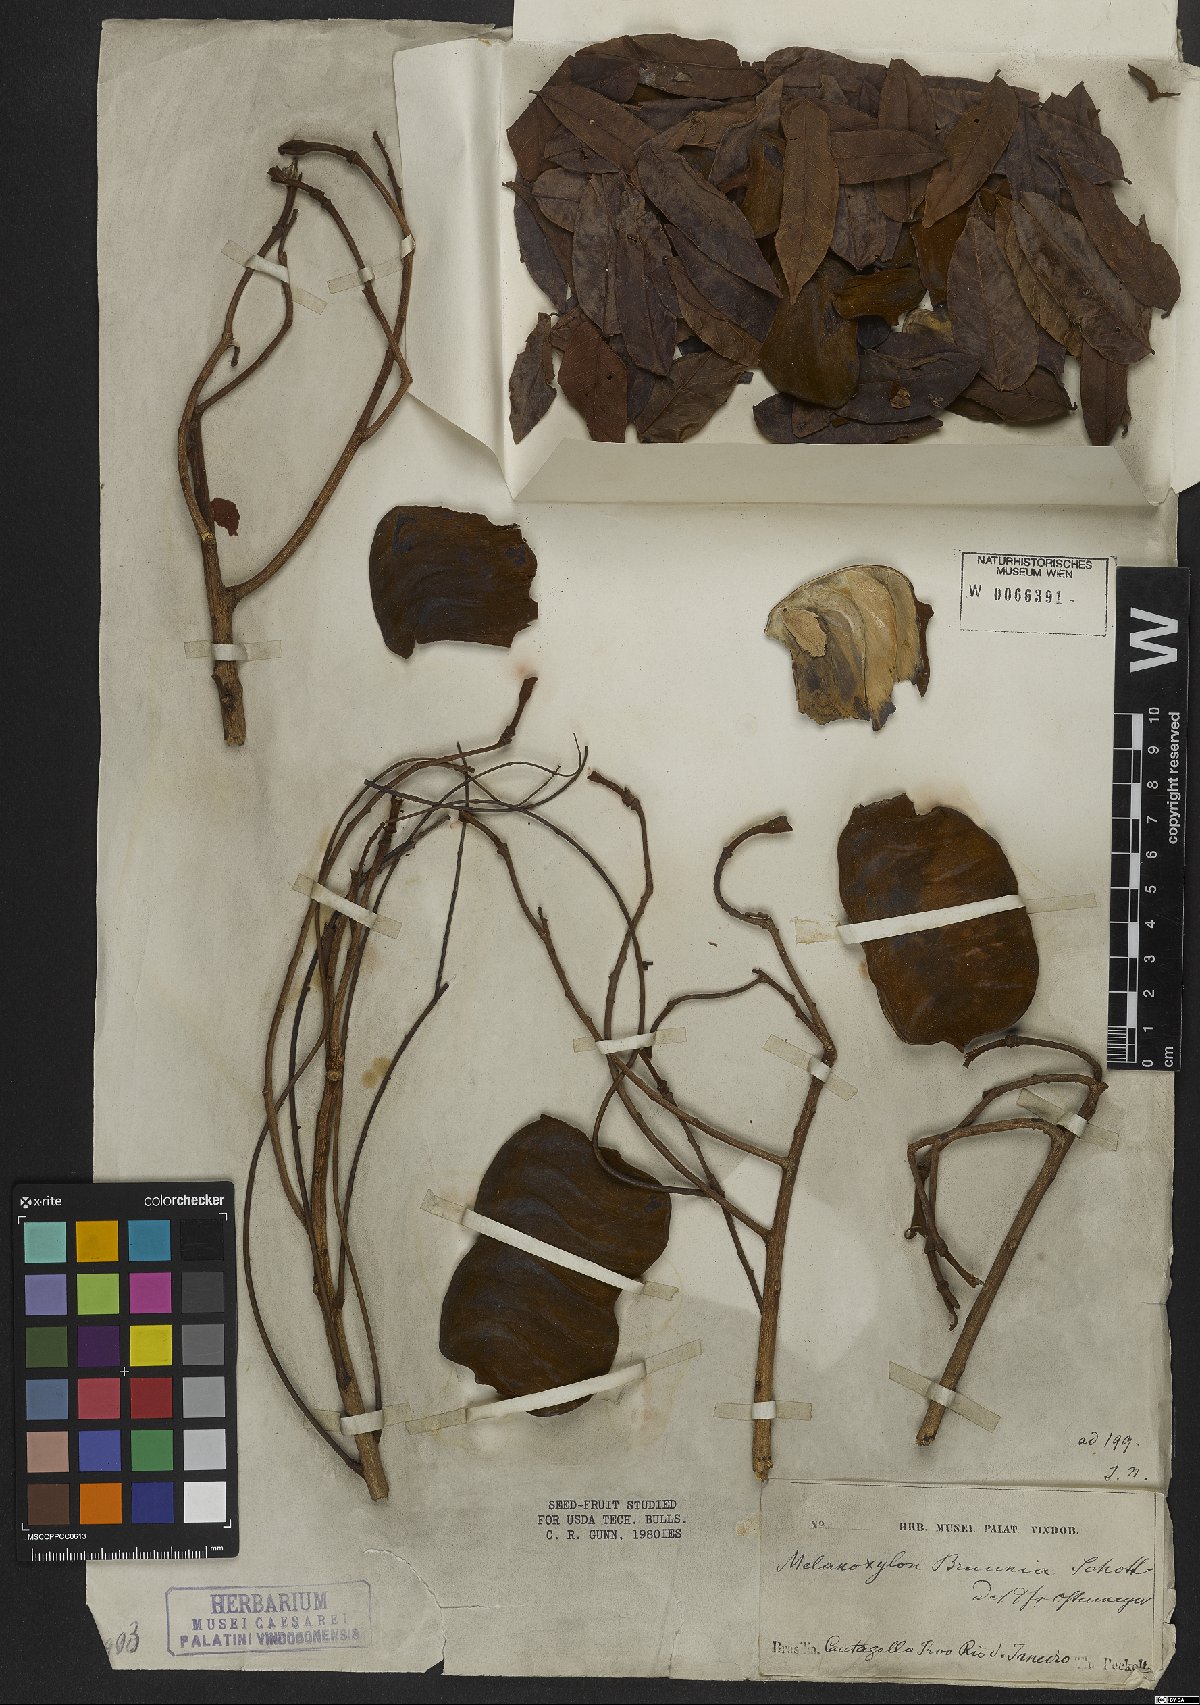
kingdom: Plantae
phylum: Tracheophyta
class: Magnoliopsida
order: Fabales
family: Fabaceae
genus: Melanoxylon
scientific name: Melanoxylon brauna
